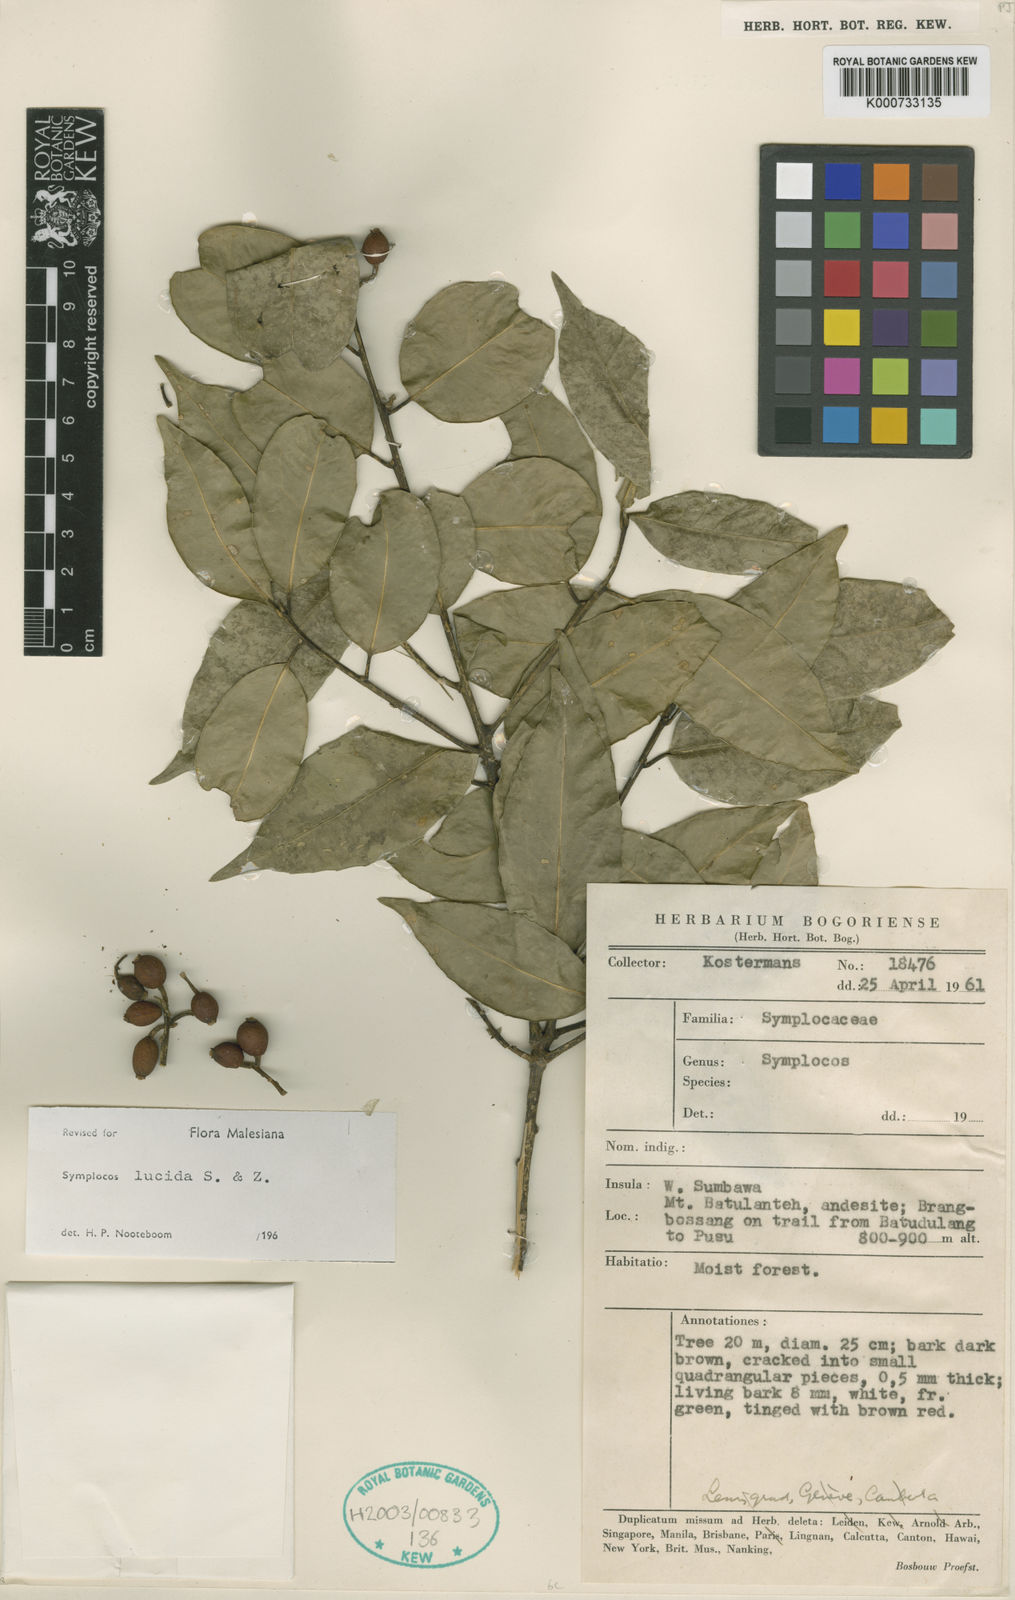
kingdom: Plantae
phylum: Tracheophyta
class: Magnoliopsida
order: Ericales
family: Symplocaceae
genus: Symplocos
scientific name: Symplocos
